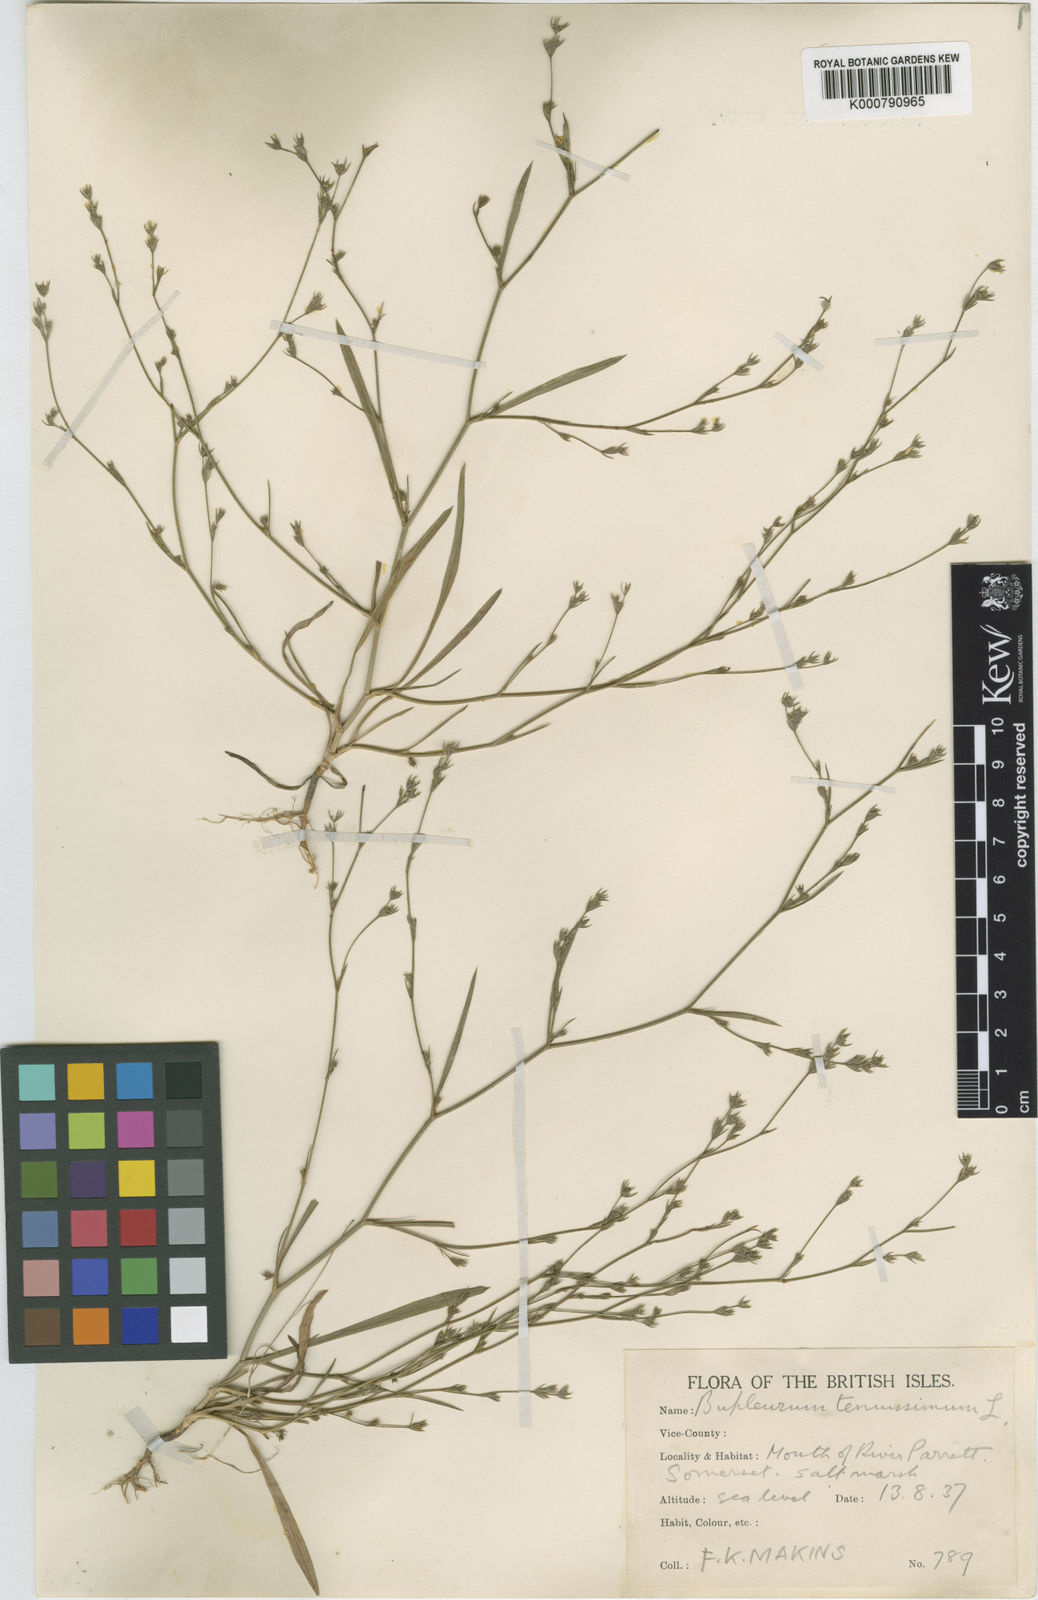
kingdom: Plantae
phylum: Tracheophyta
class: Magnoliopsida
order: Apiales
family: Apiaceae
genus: Bupleurum
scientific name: Bupleurum tenuissimum
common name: Slender hare's-ear
